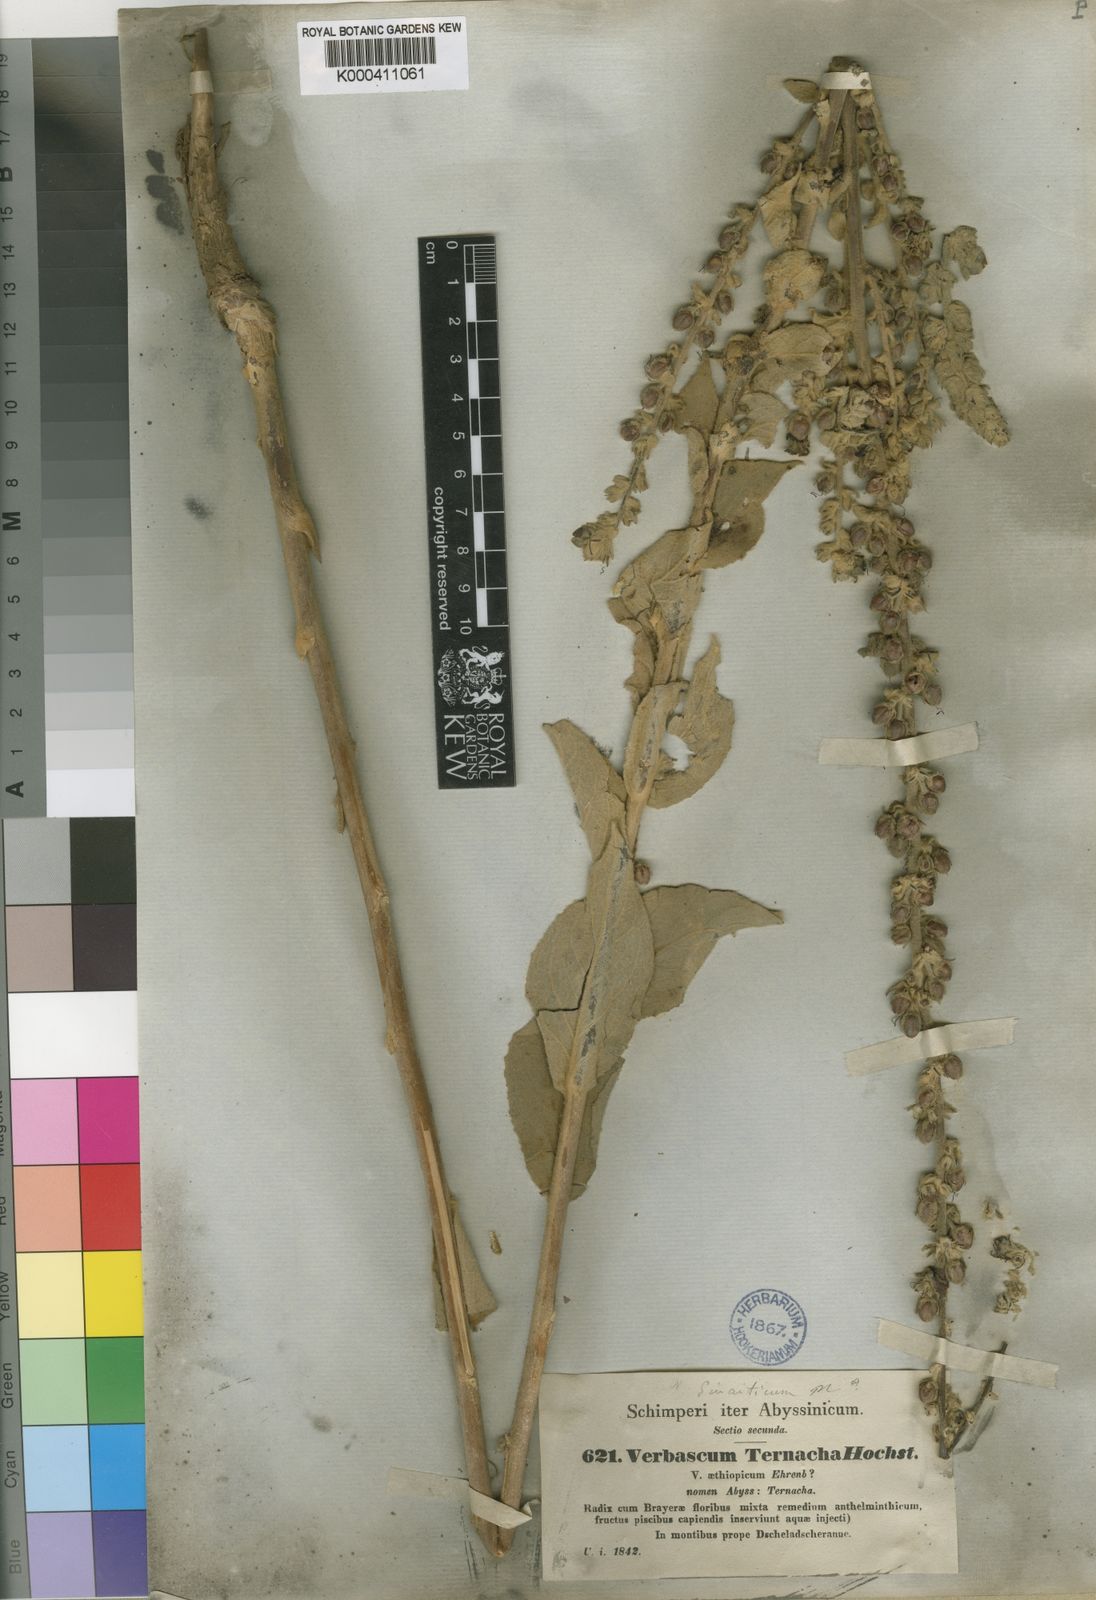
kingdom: Plantae
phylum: Tracheophyta
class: Magnoliopsida
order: Lamiales
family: Scrophulariaceae
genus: Verbascum
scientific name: Verbascum sinaiticum
